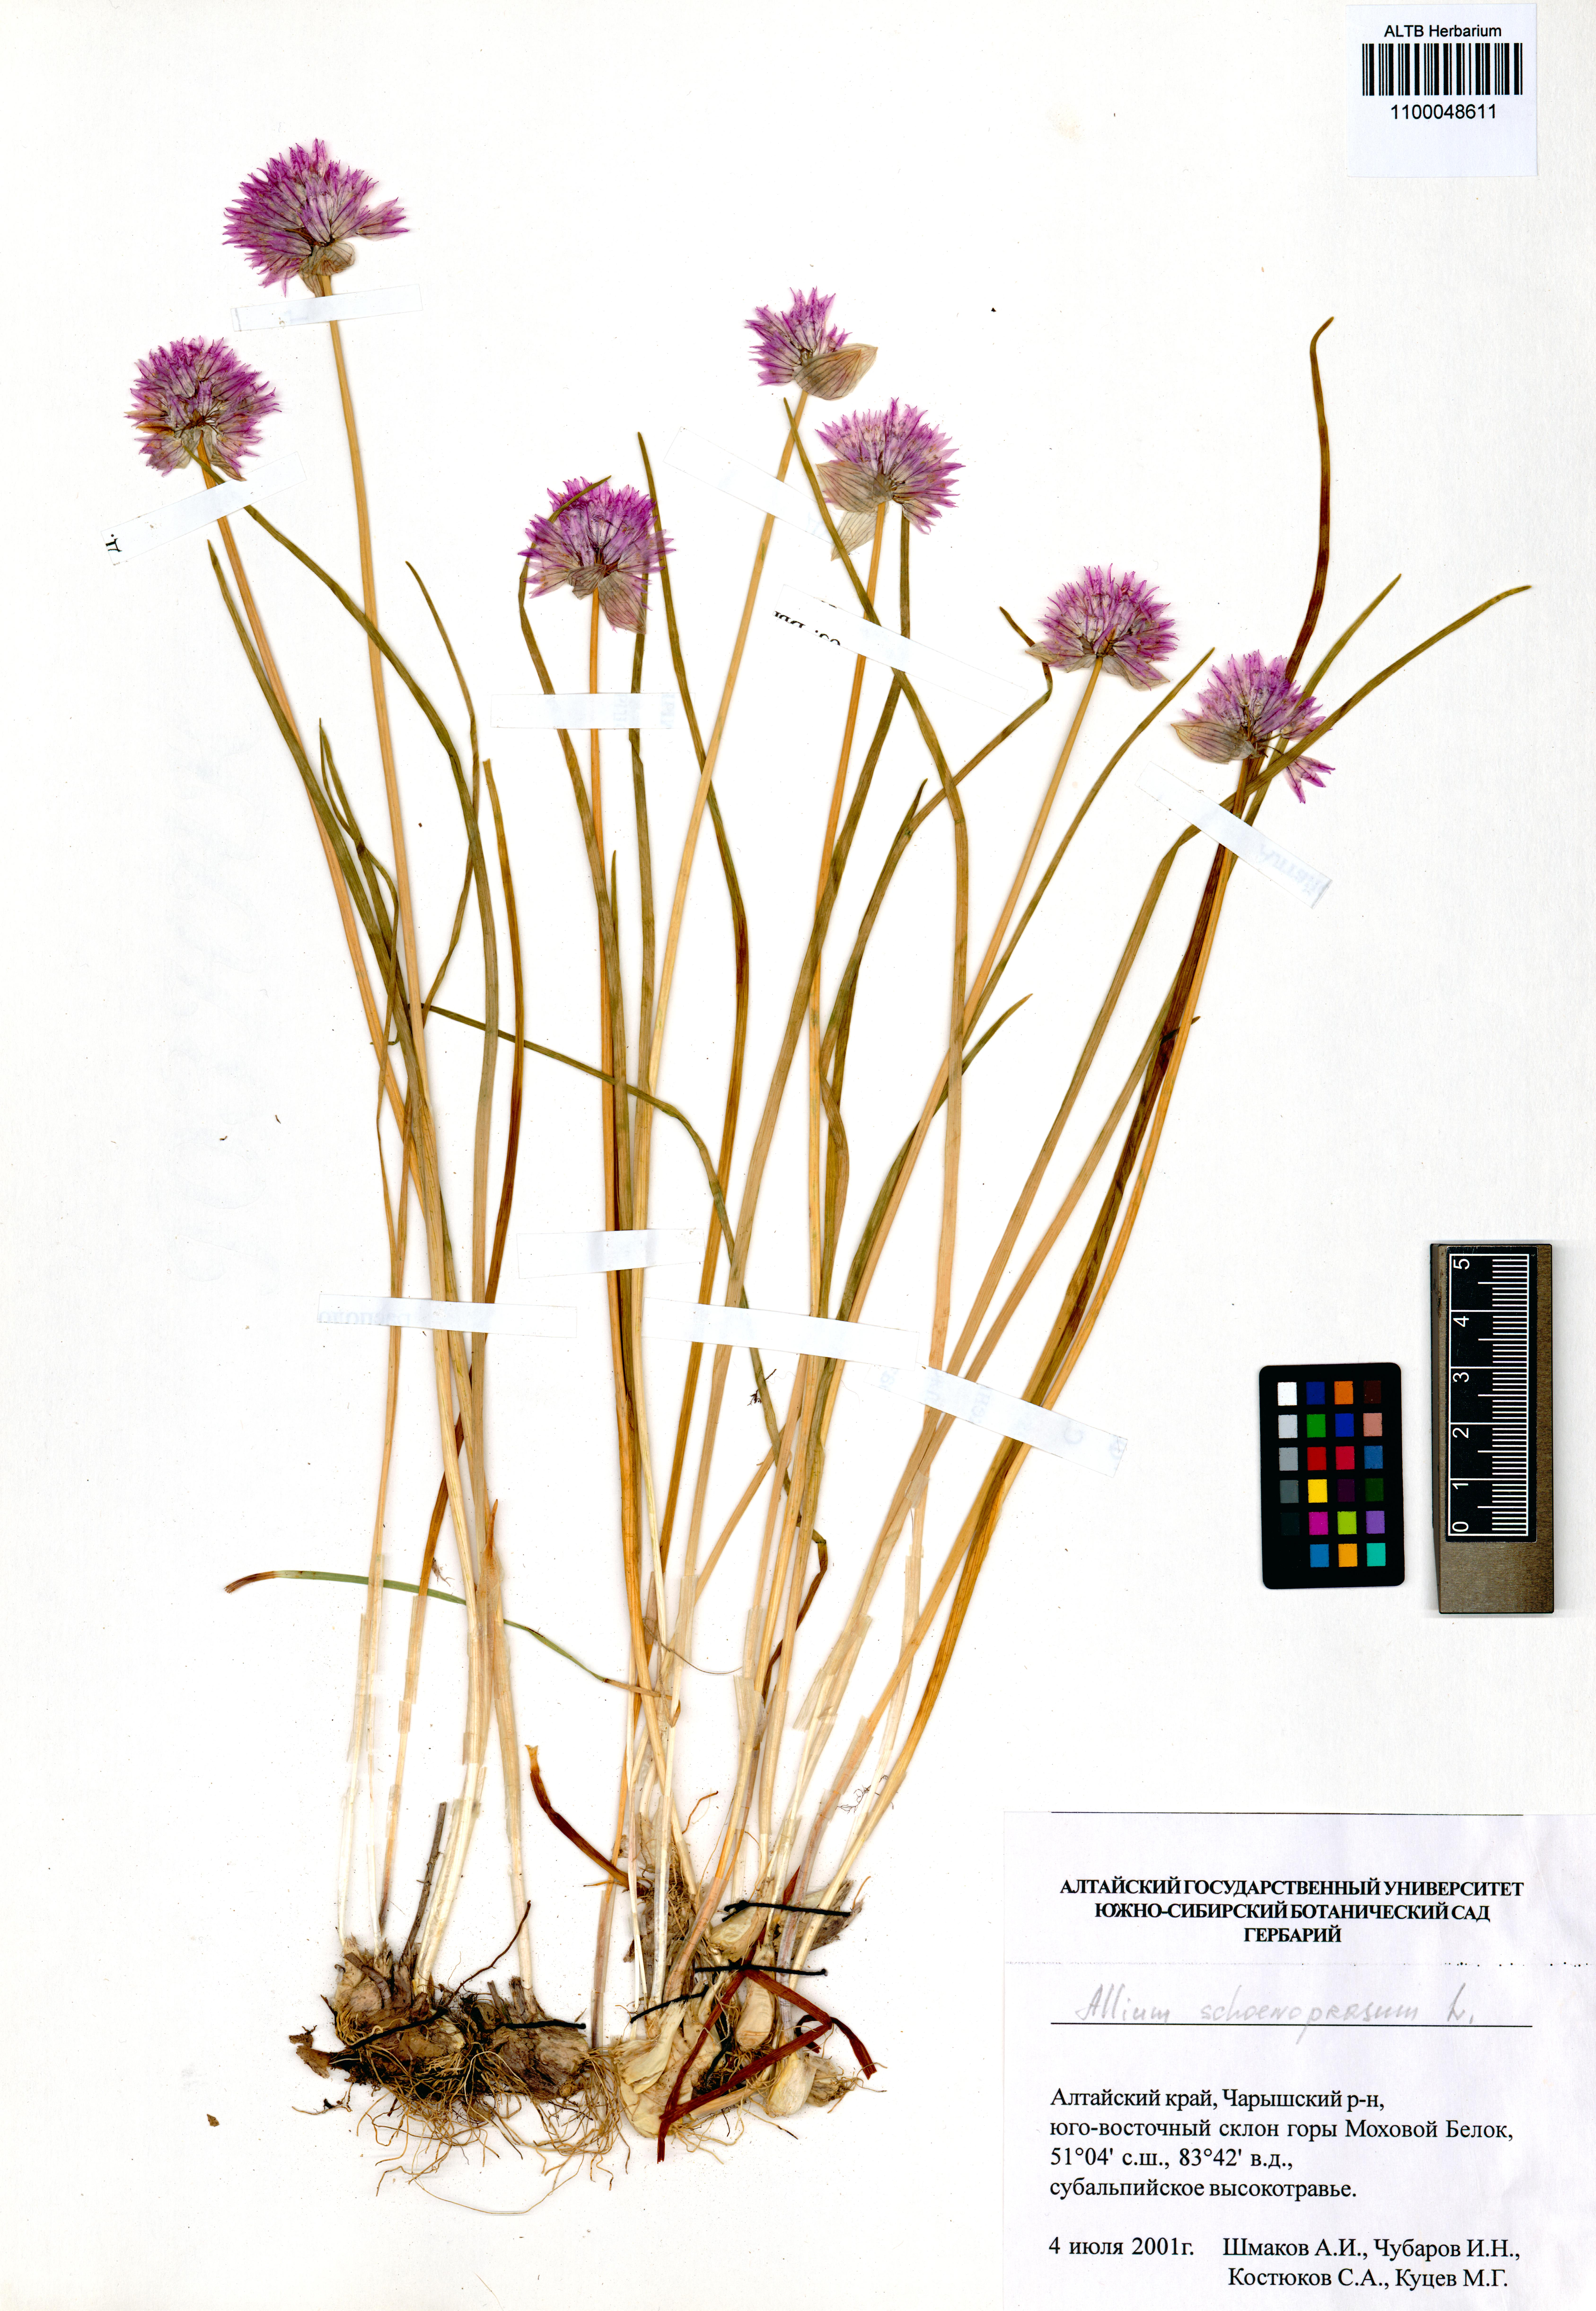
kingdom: Plantae
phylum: Tracheophyta
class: Liliopsida
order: Asparagales
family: Amaryllidaceae
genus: Allium
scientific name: Allium schoenoprasum
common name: Chives
